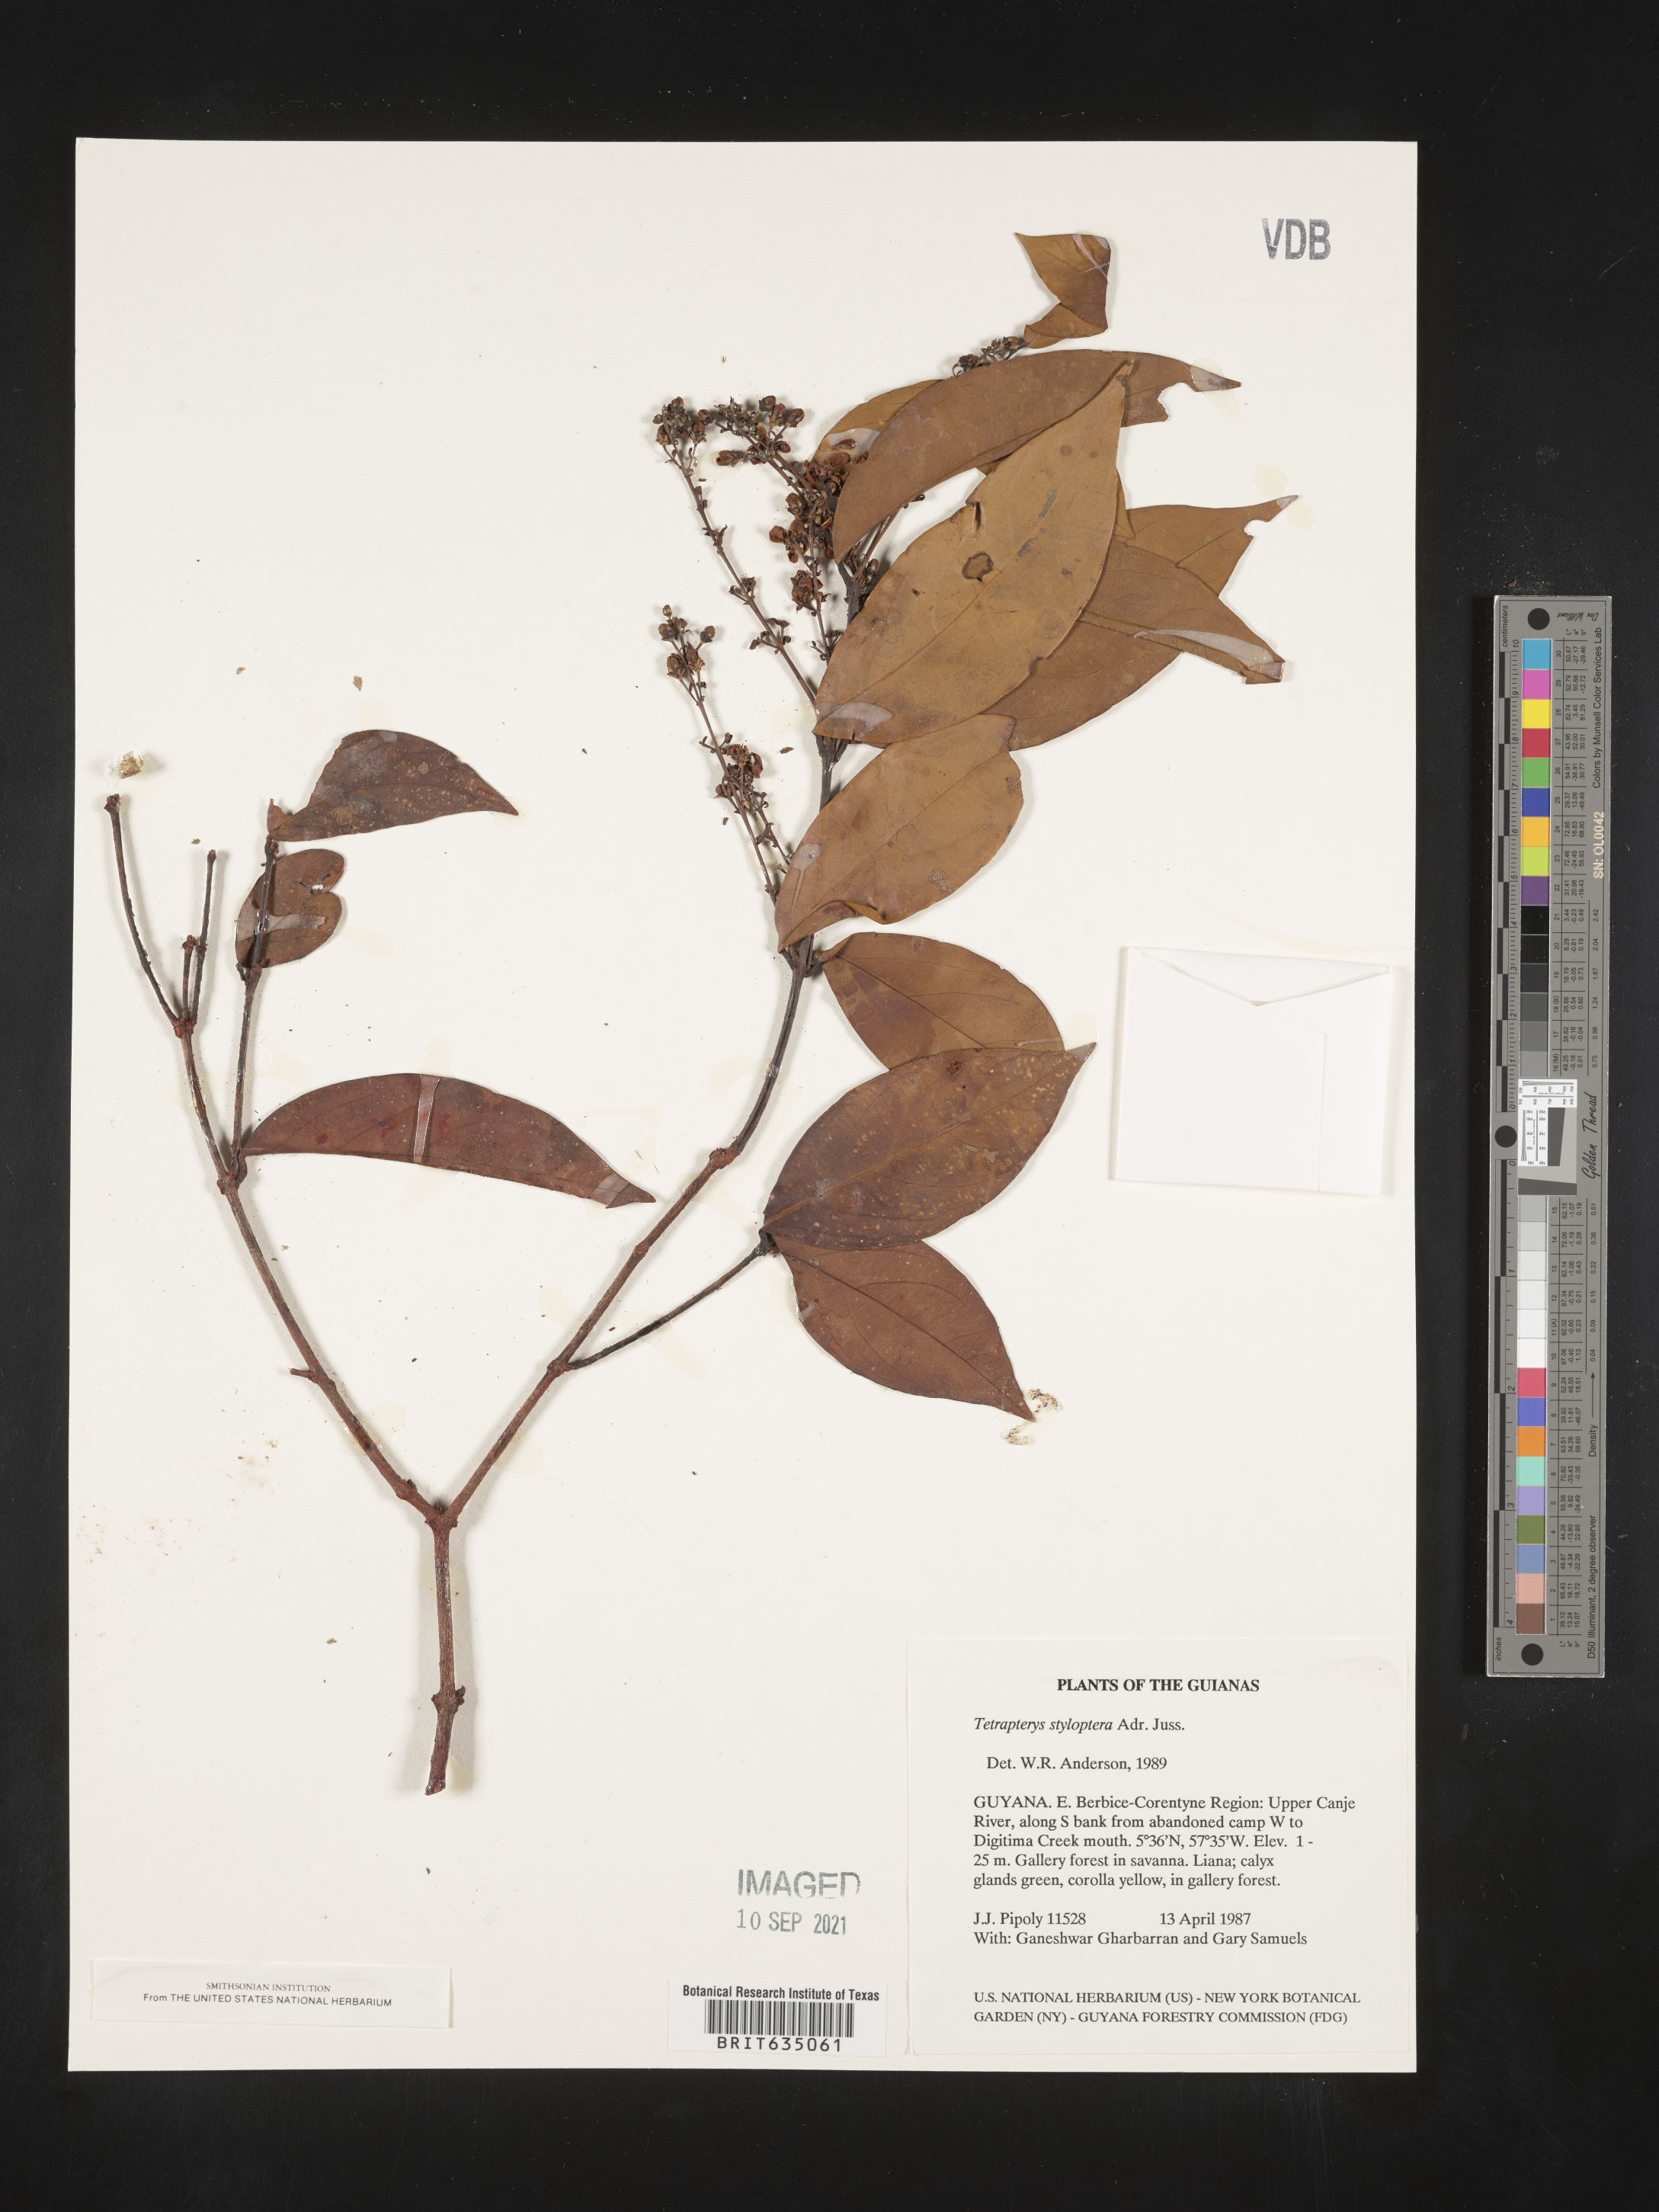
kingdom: Plantae
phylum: Tracheophyta
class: Magnoliopsida
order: Ericales
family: Styracaceae
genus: Tetrapteris
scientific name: Tetrapteris
